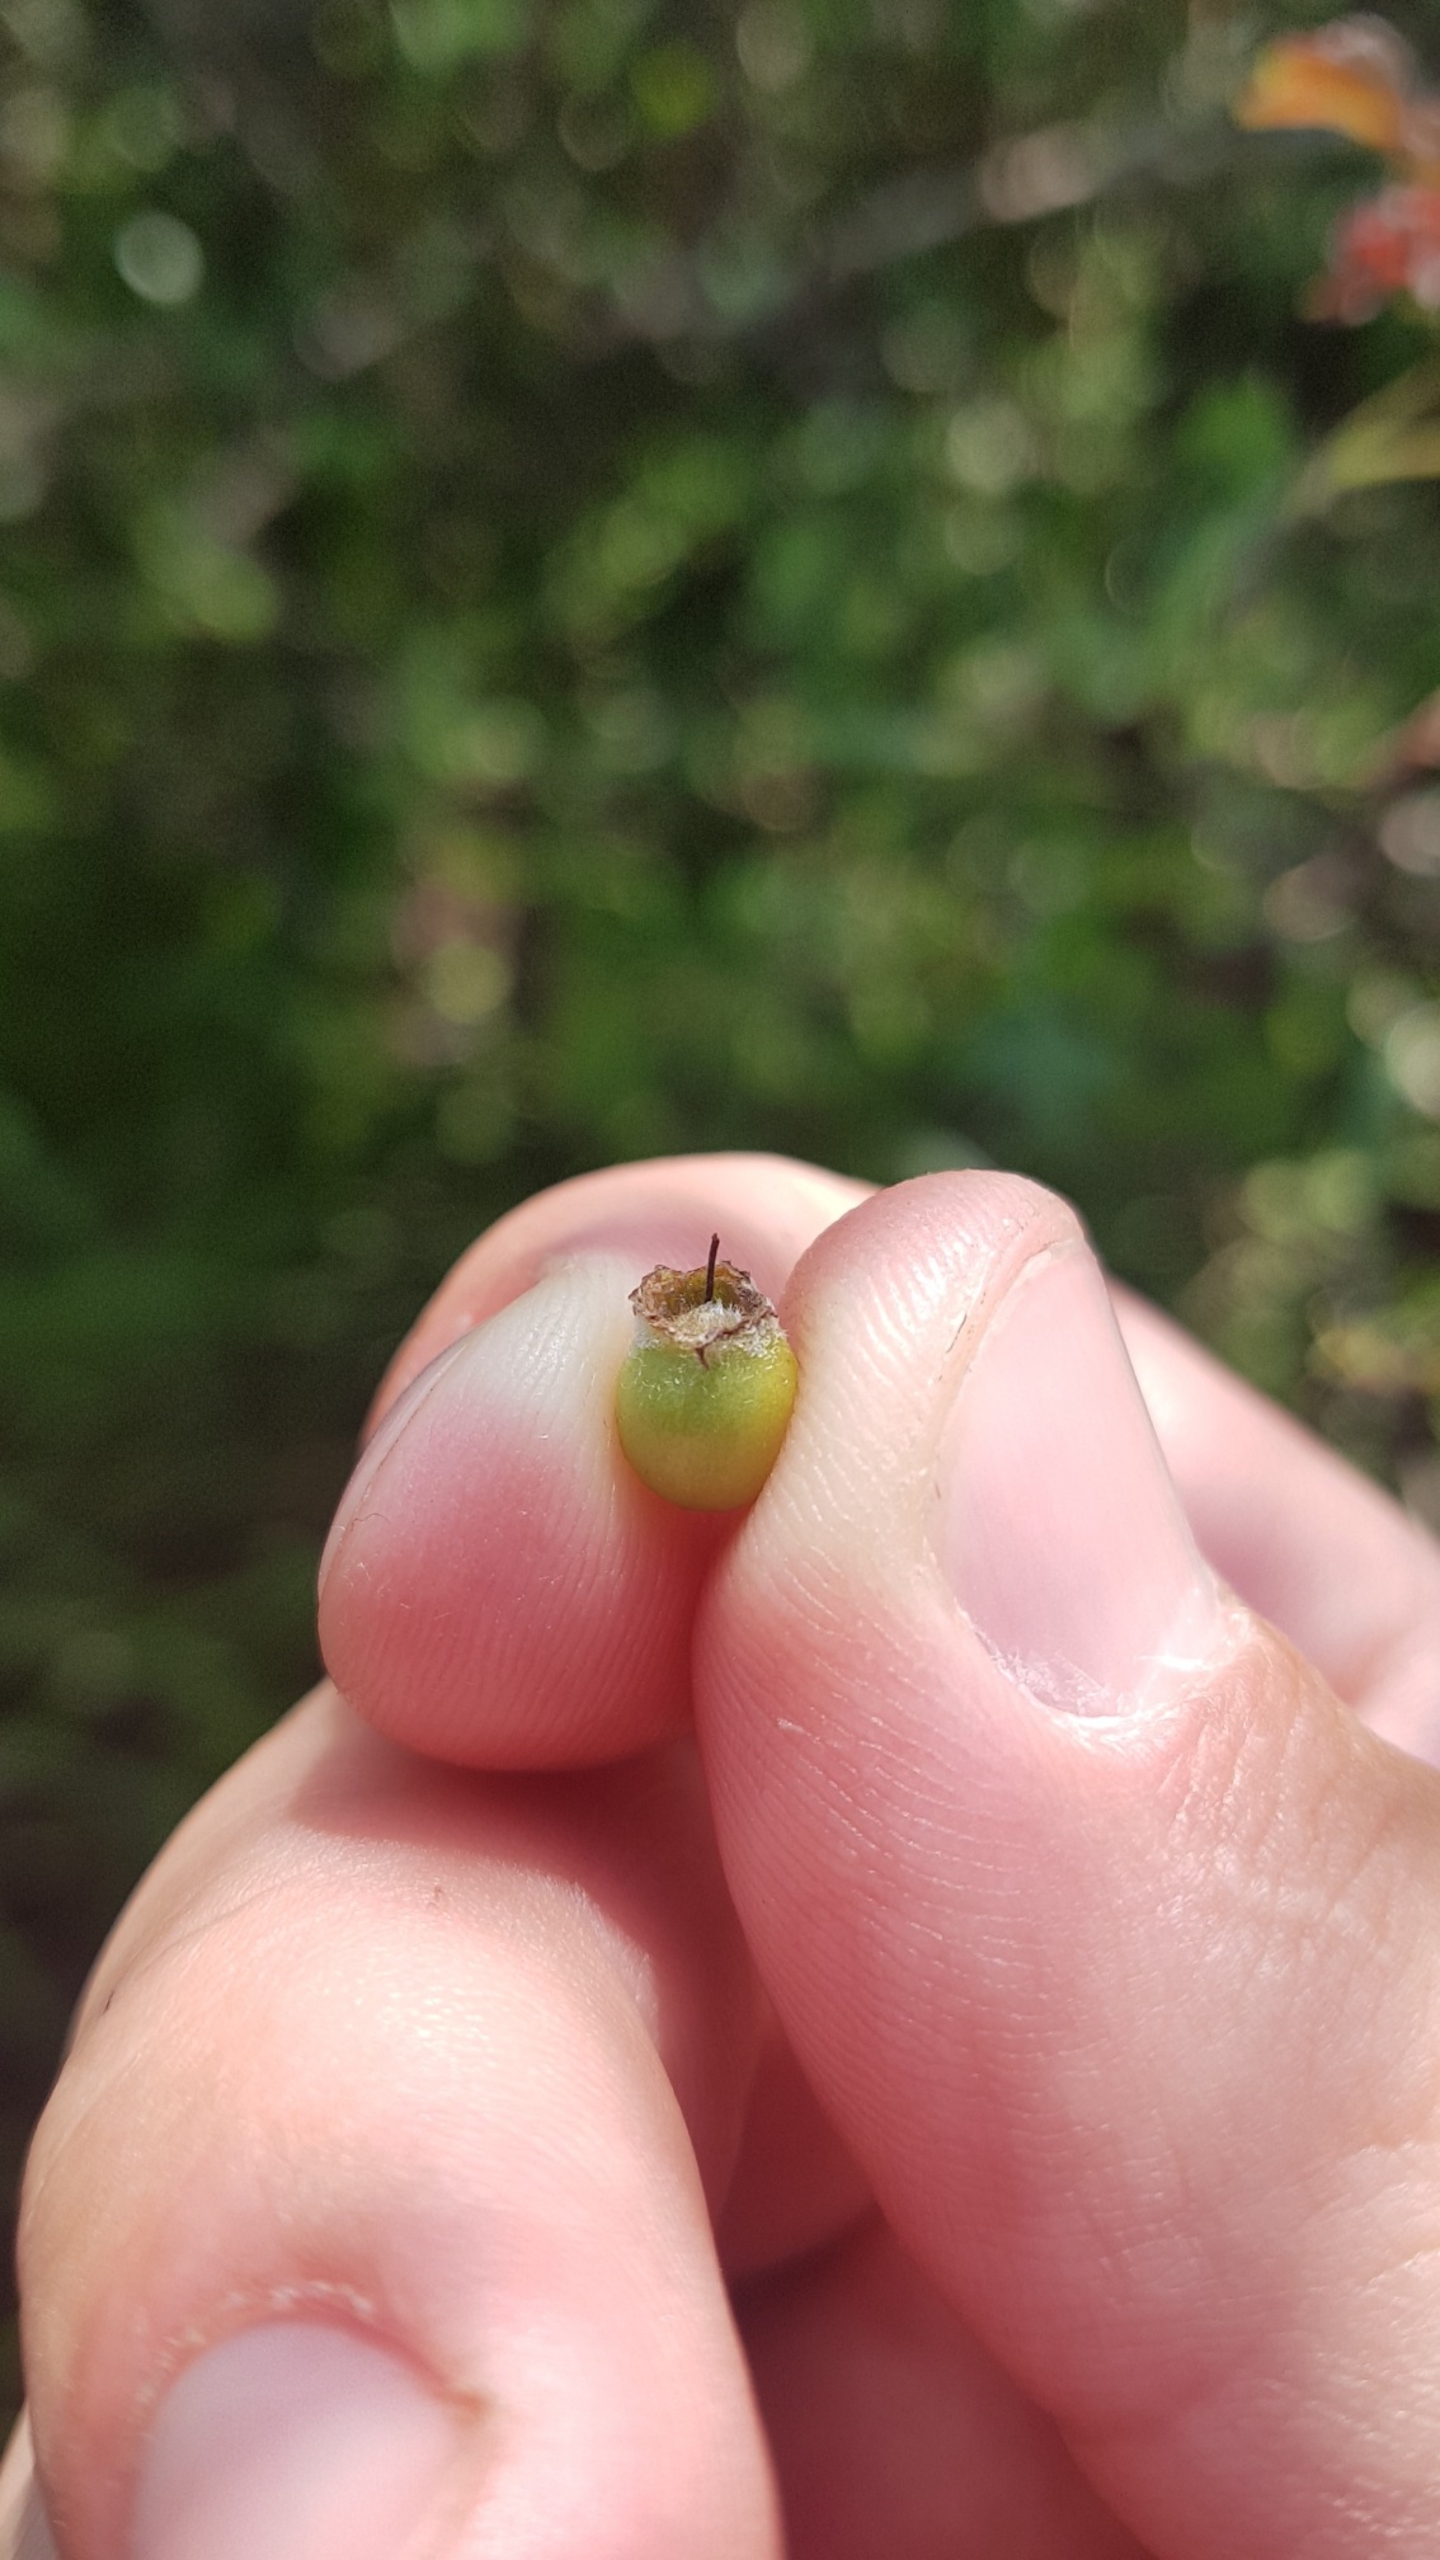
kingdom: Plantae
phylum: Tracheophyta
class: Magnoliopsida
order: Rosales
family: Rosaceae
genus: Crataegus
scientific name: Crataegus monogyna
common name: Engriflet hvidtjørn
